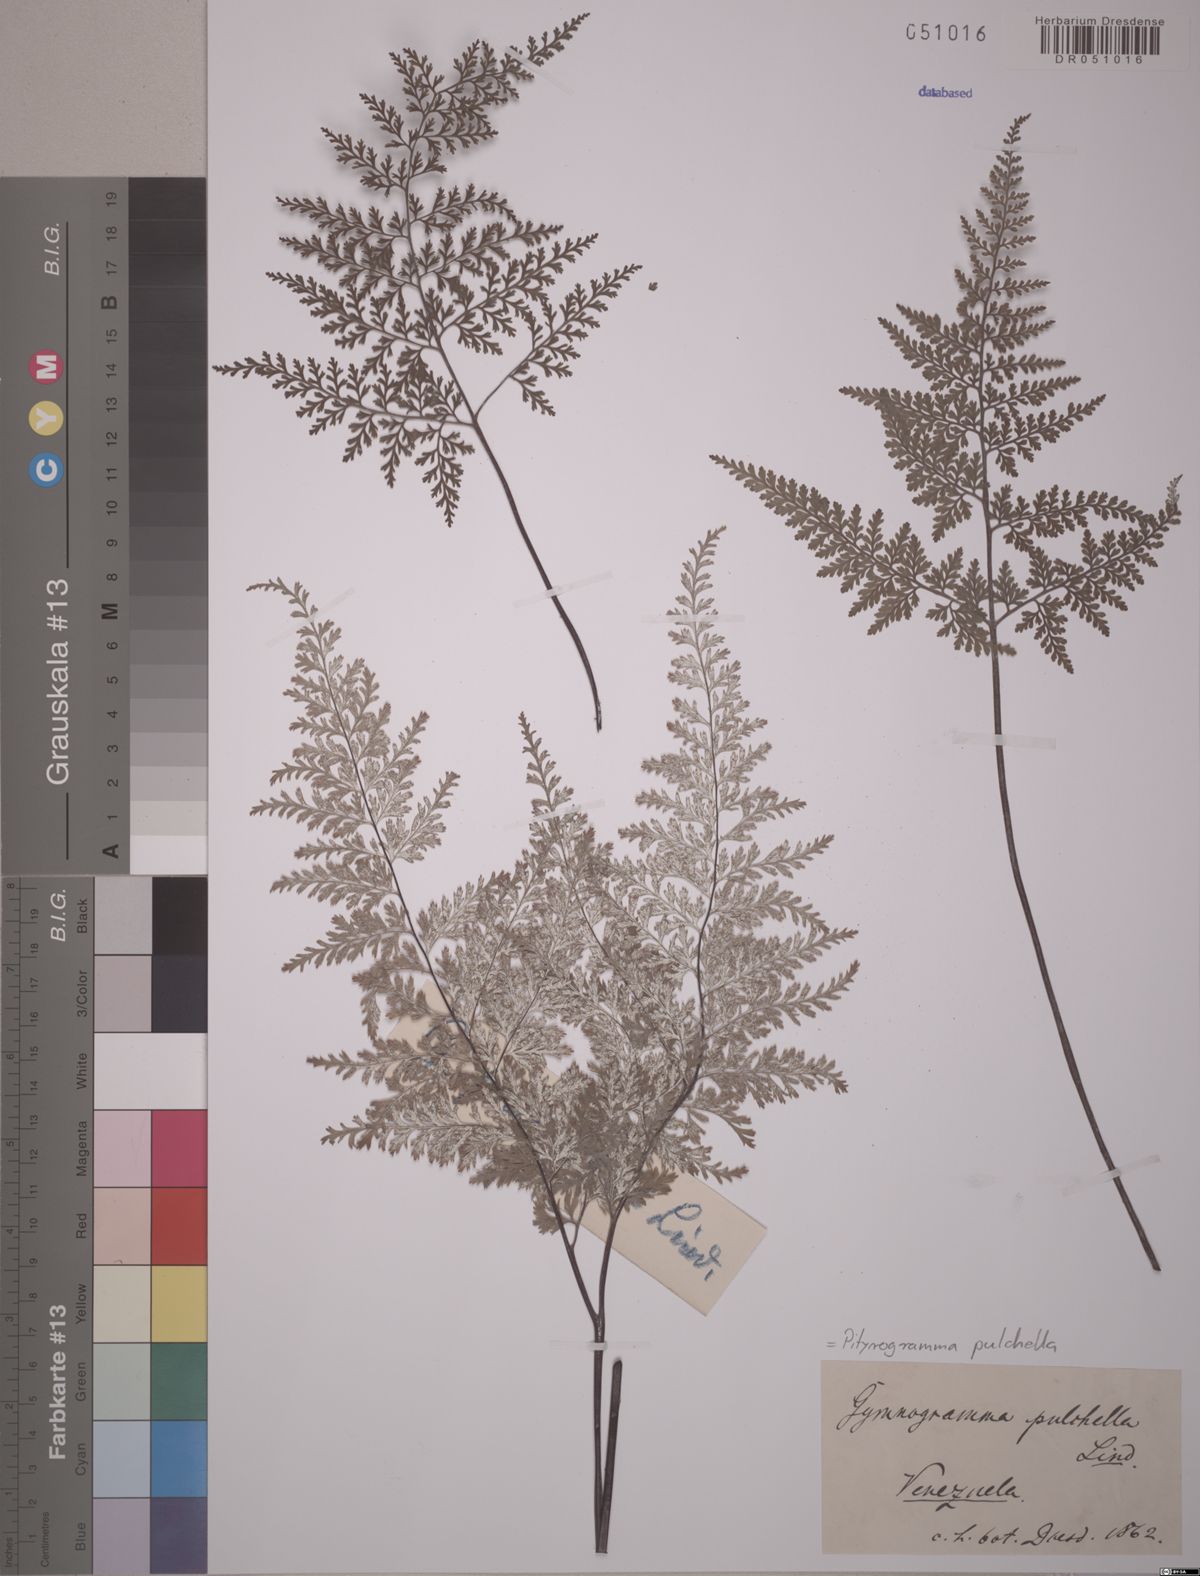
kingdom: Plantae
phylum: Tracheophyta
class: Polypodiopsida
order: Polypodiales
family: Pteridaceae
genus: Pityrogramma
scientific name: Pityrogramma pulchella
